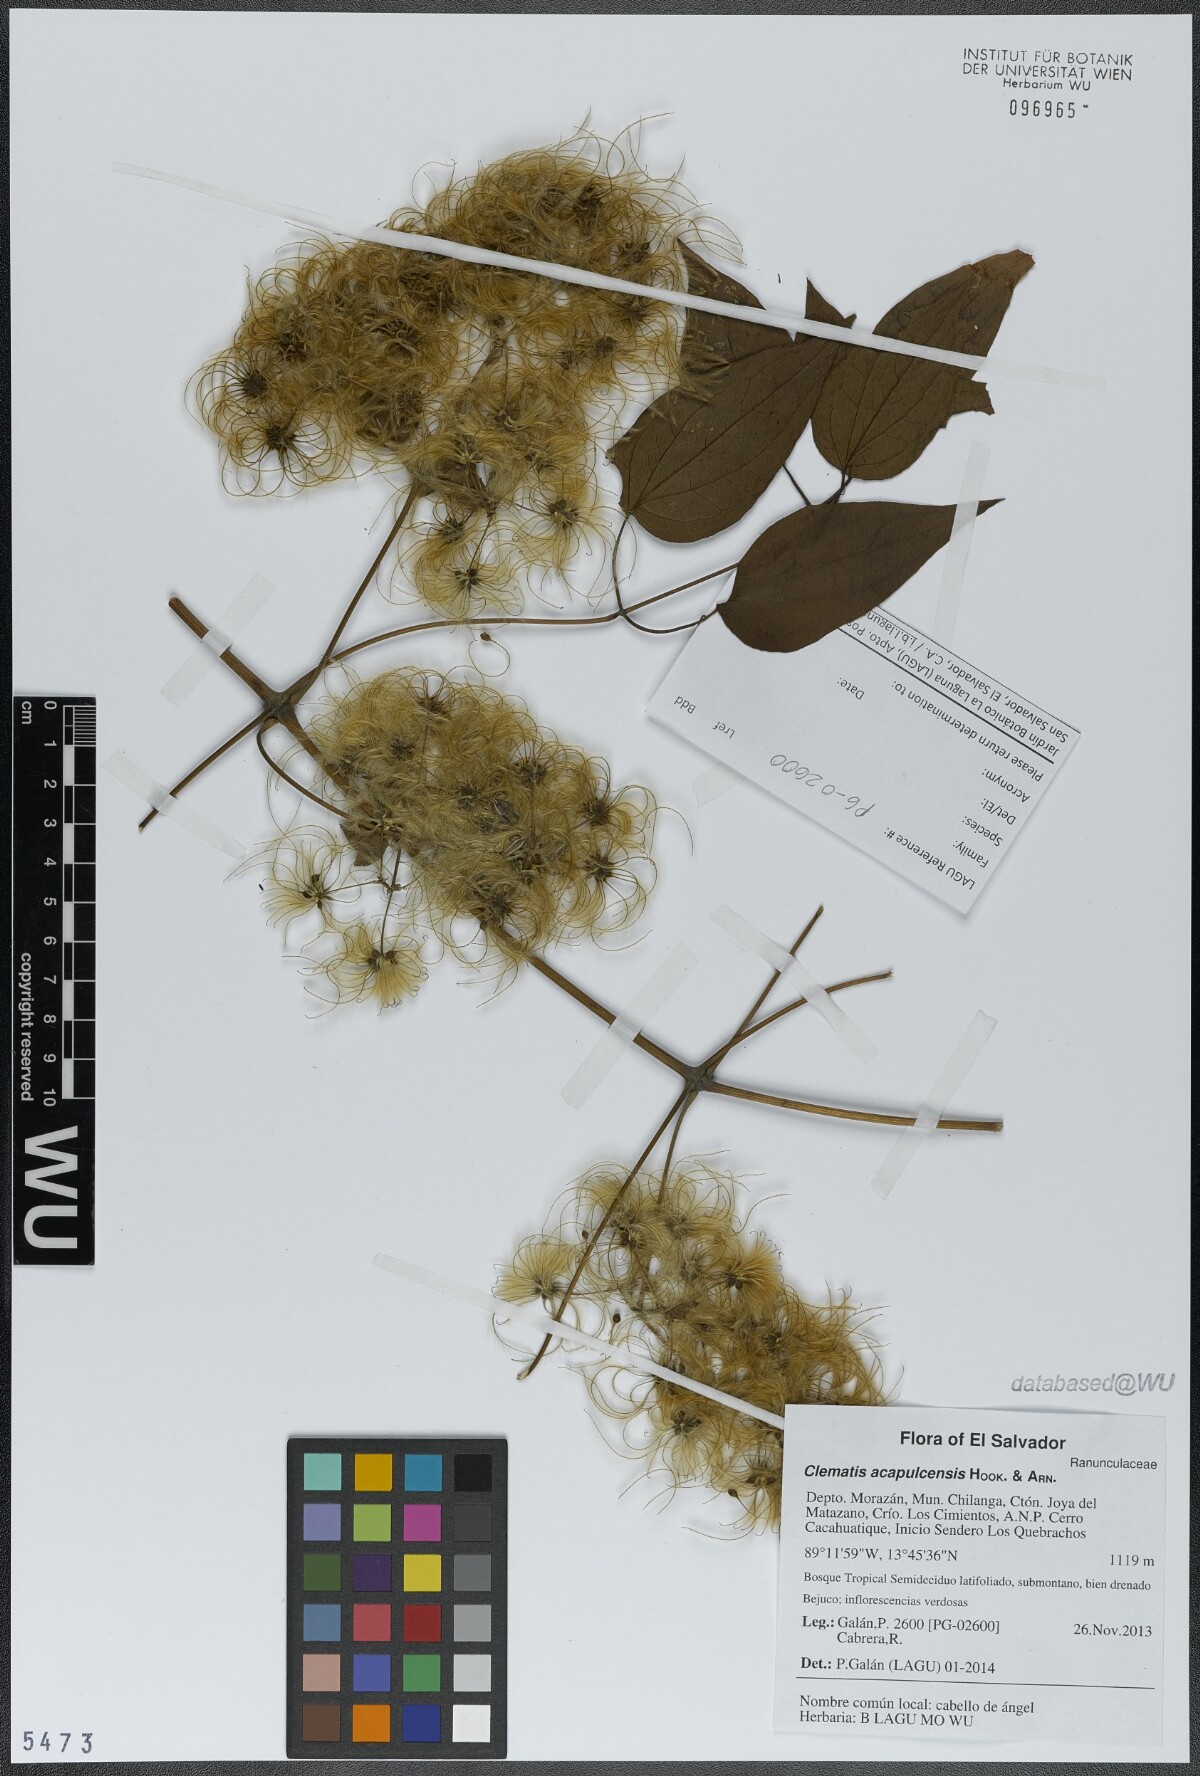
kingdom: Plantae
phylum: Tracheophyta
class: Magnoliopsida
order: Ranunculales
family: Ranunculaceae
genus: Clematis
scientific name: Clematis acapulcensis
